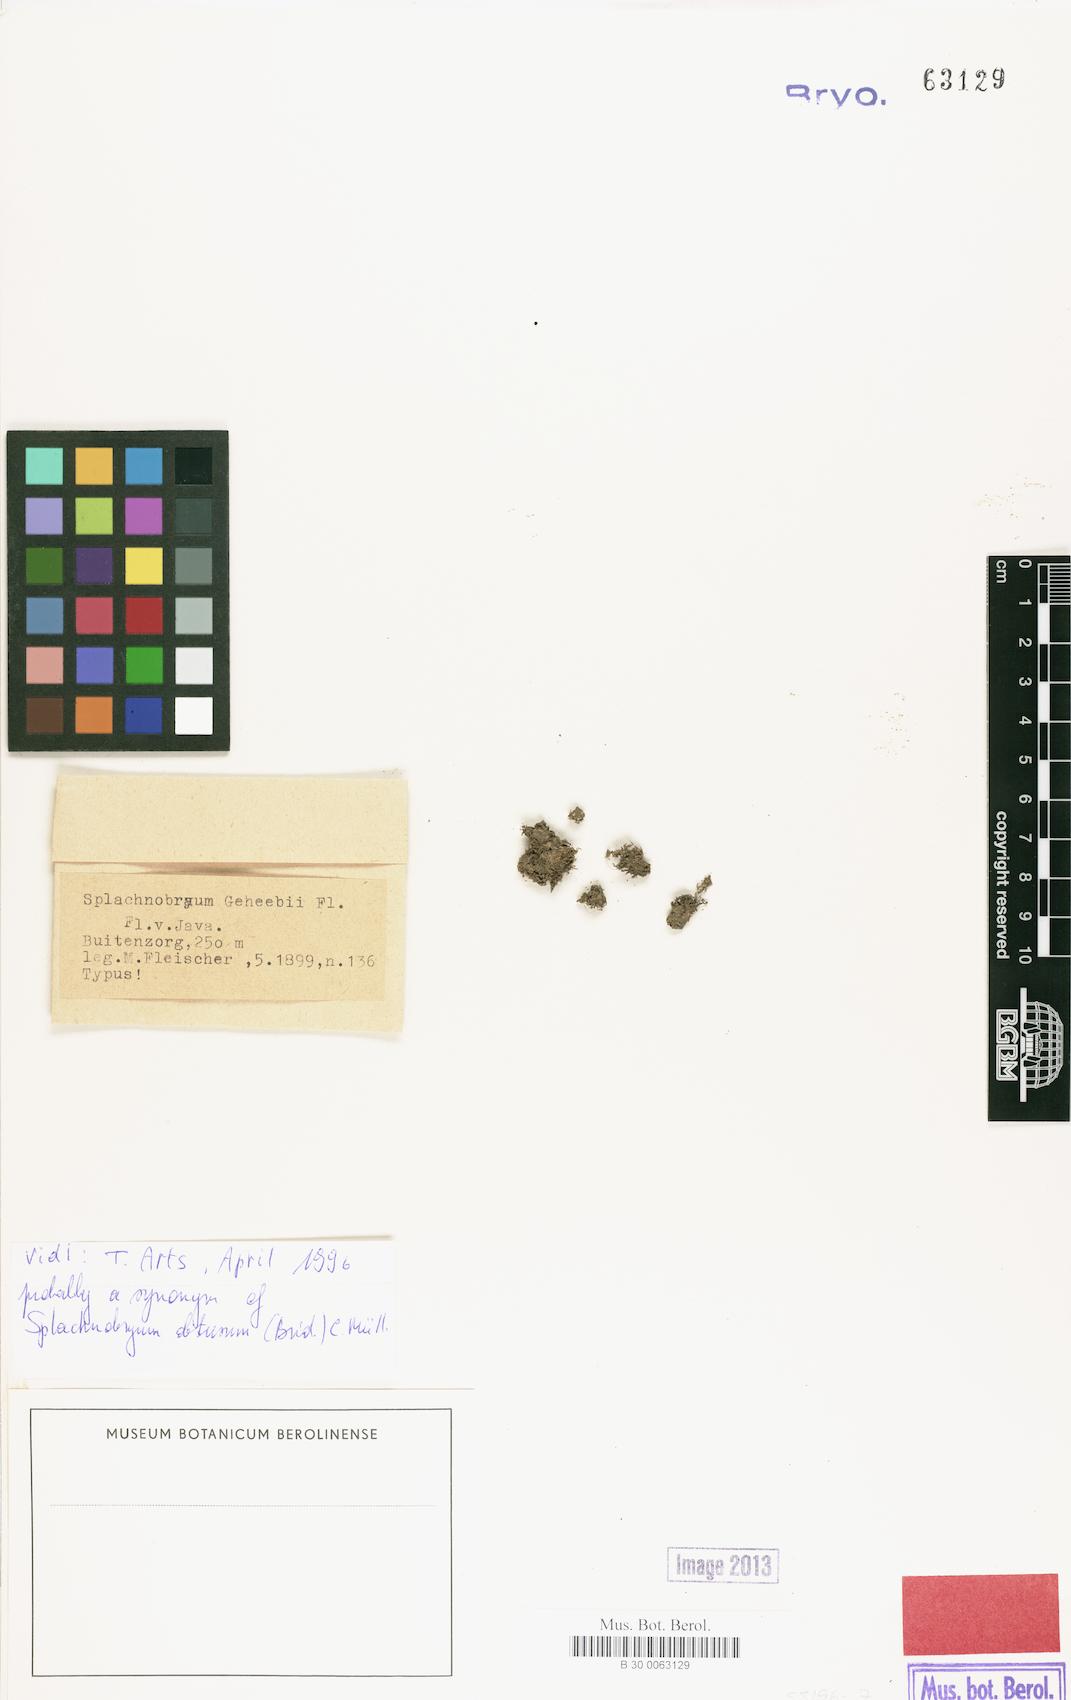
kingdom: Plantae
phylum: Bryophyta
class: Bryopsida
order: Pottiales
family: Splachnobryaceae
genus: Splachnobryum
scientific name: Splachnobryum obtusum
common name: Splachnobryum moss
